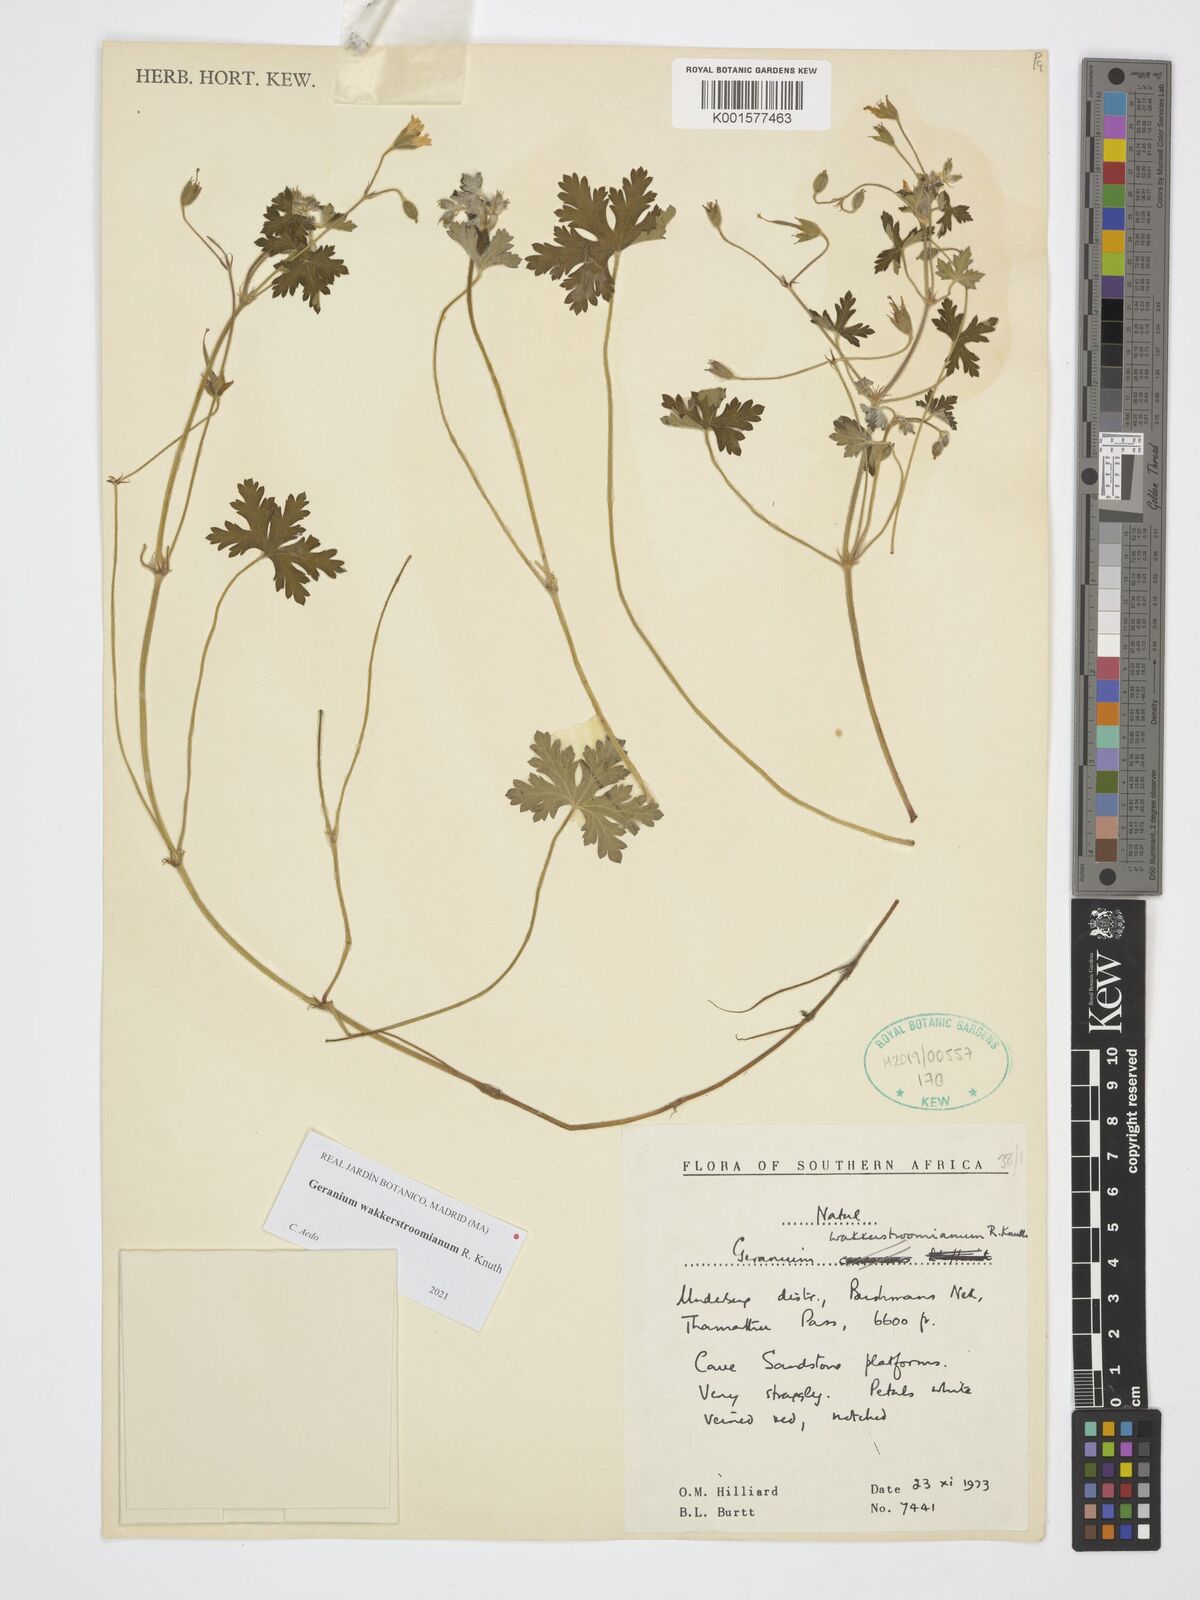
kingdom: Plantae
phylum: Tracheophyta
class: Magnoliopsida
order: Geraniales
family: Geraniaceae
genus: Geranium
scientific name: Geranium wakkerstroomianum
